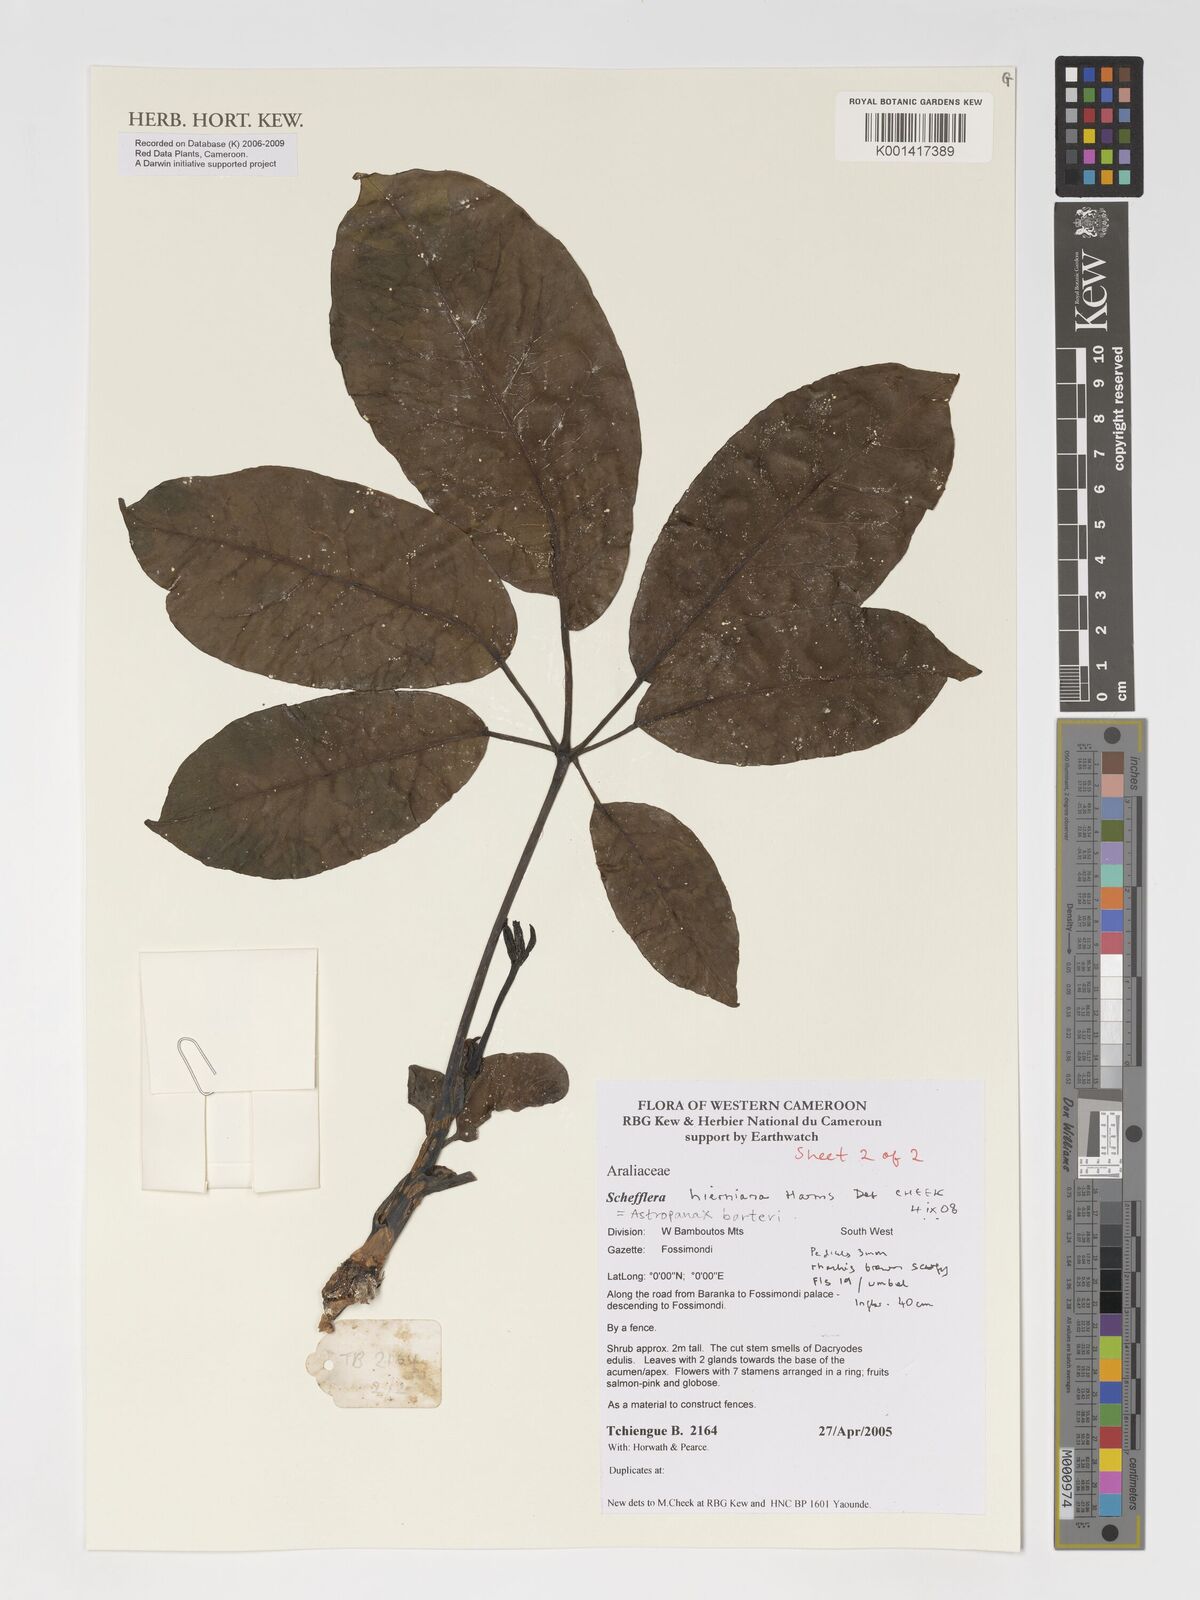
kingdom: Plantae
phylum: Tracheophyta
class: Magnoliopsida
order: Apiales
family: Araliaceae
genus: Astropanax
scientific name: Astropanax barteri
